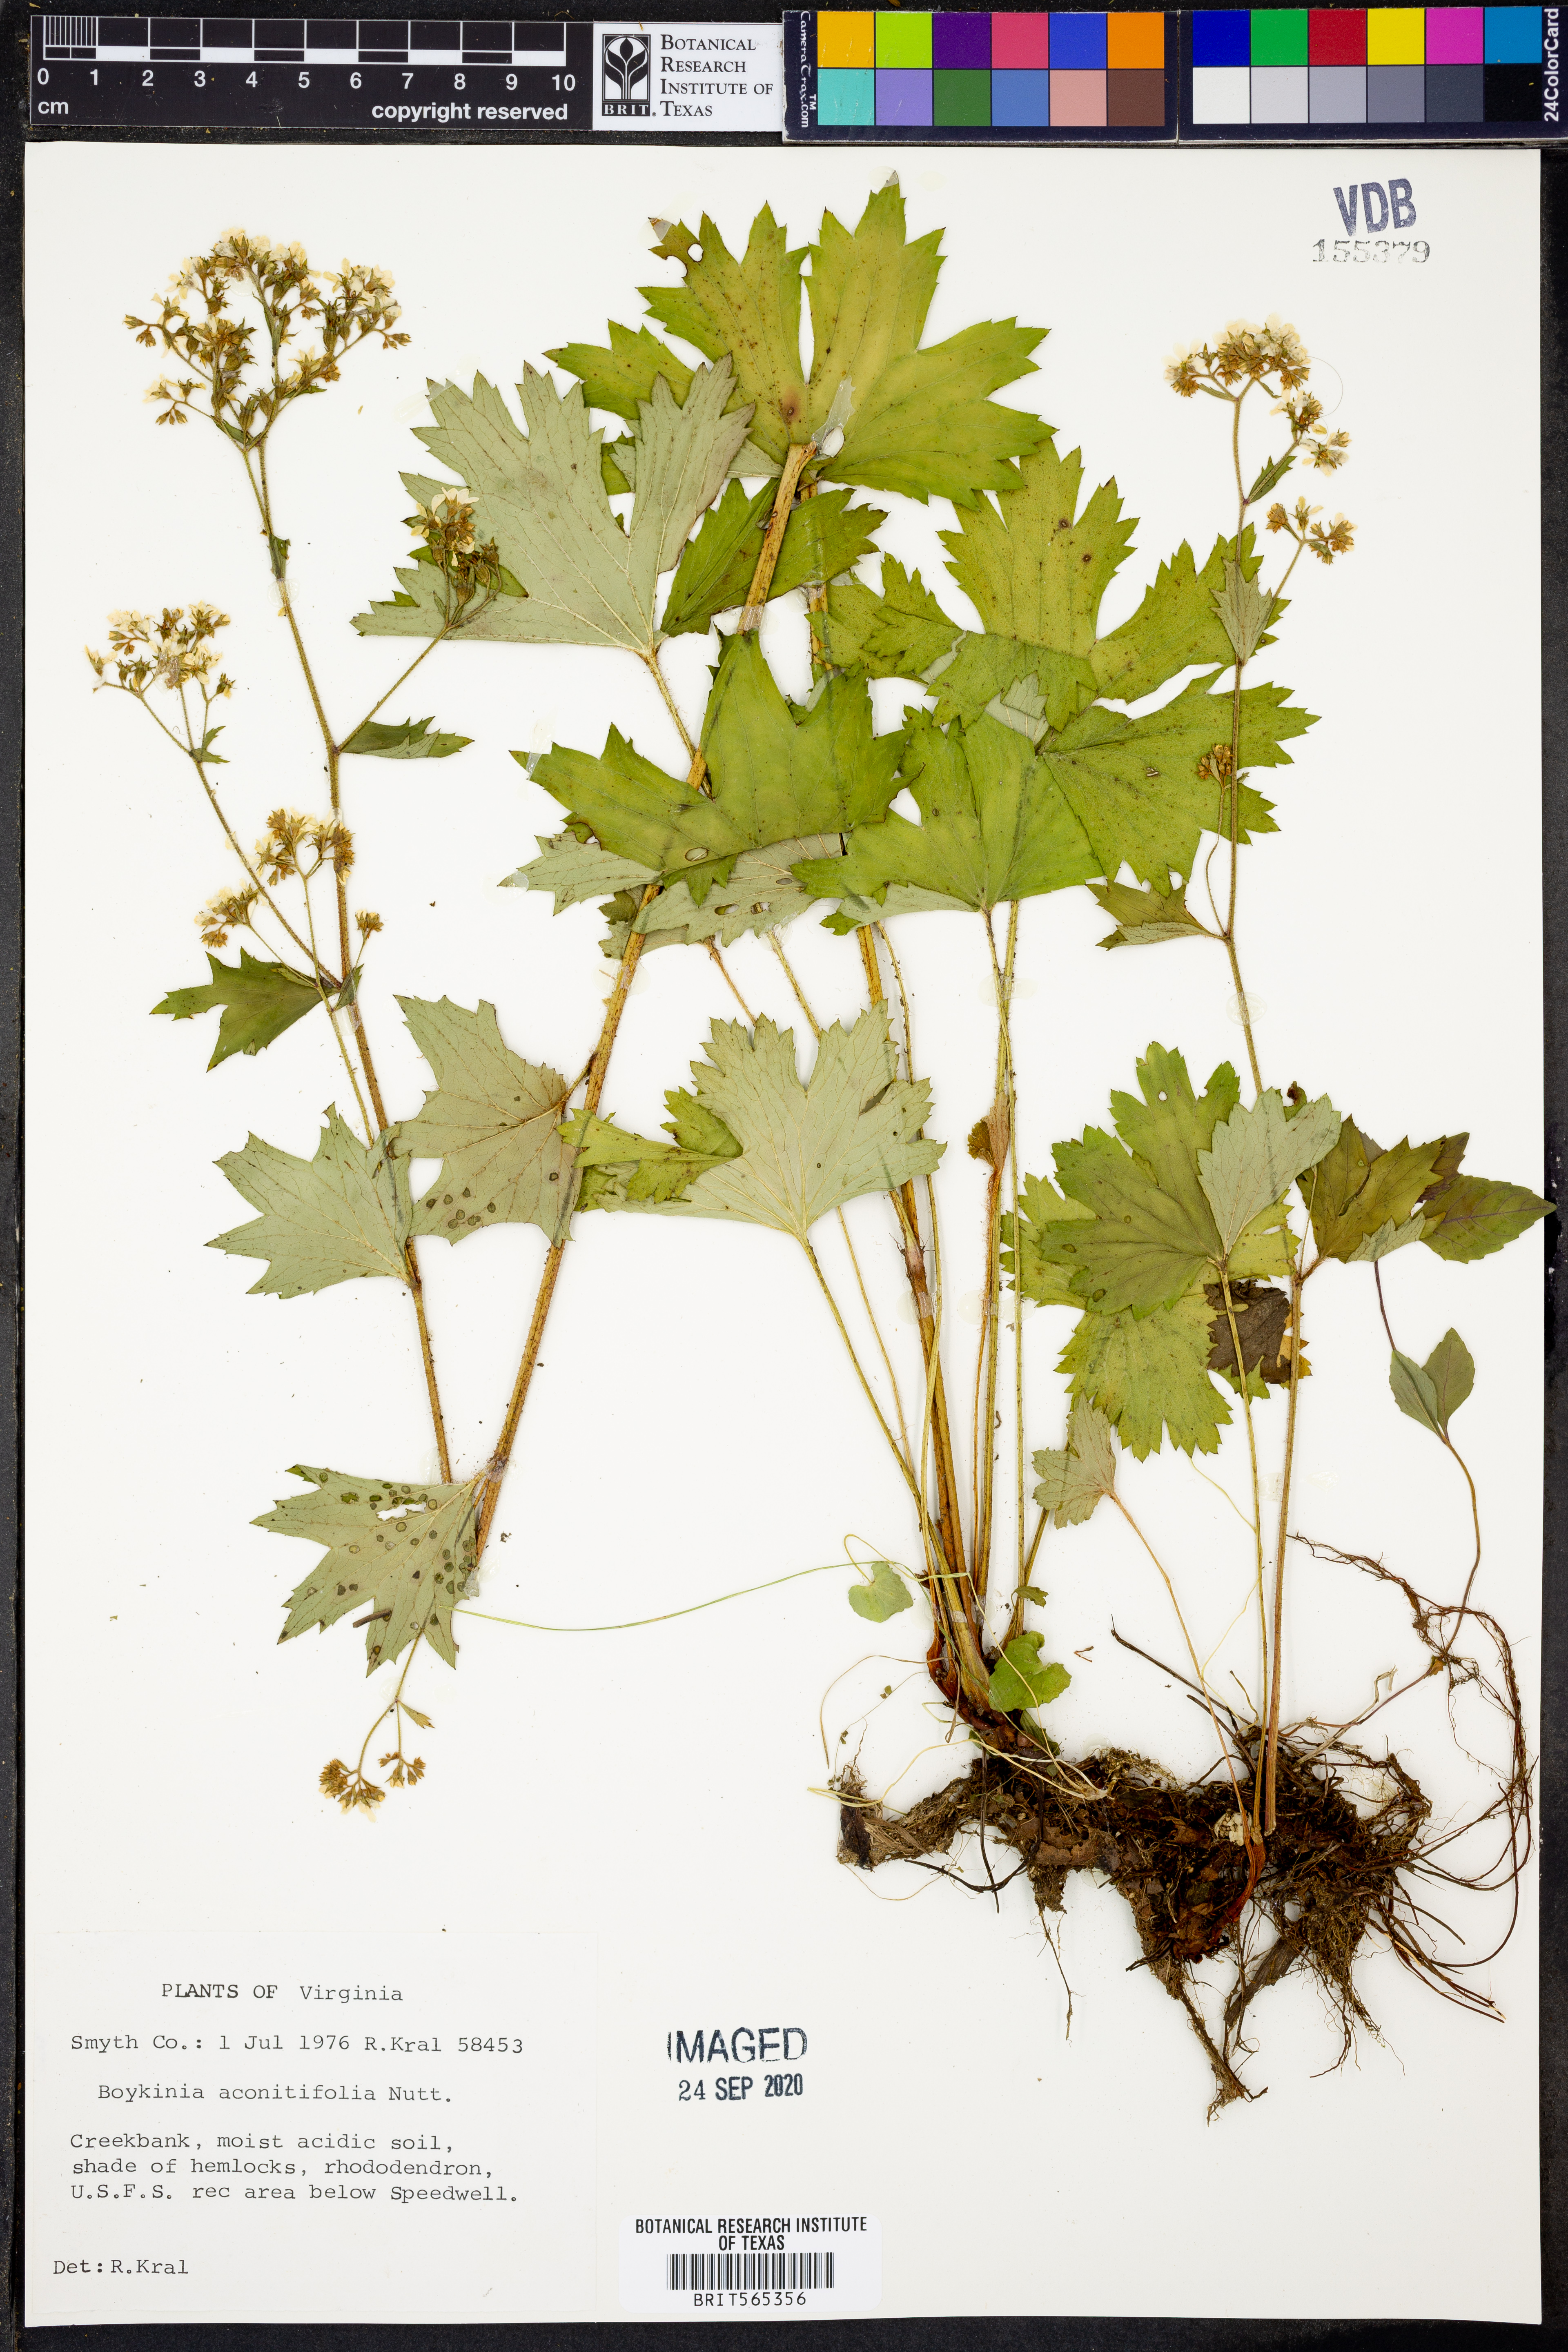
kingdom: Plantae
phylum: Tracheophyta
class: Magnoliopsida
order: Saxifragales
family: Saxifragaceae
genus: Boykinia
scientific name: Boykinia aconitifolia
